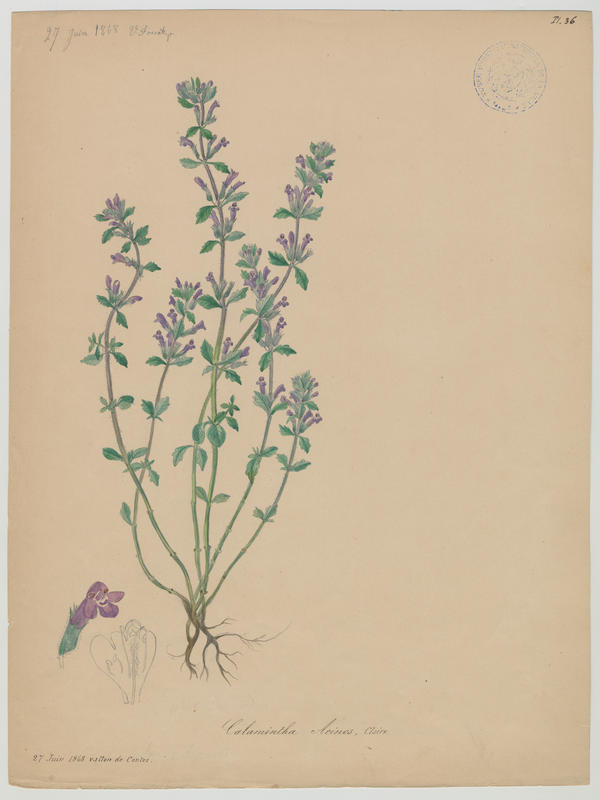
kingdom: Plantae
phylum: Tracheophyta
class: Magnoliopsida
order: Lamiales
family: Lamiaceae
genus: Clinopodium
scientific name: Clinopodium acinos
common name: Basil thyme
